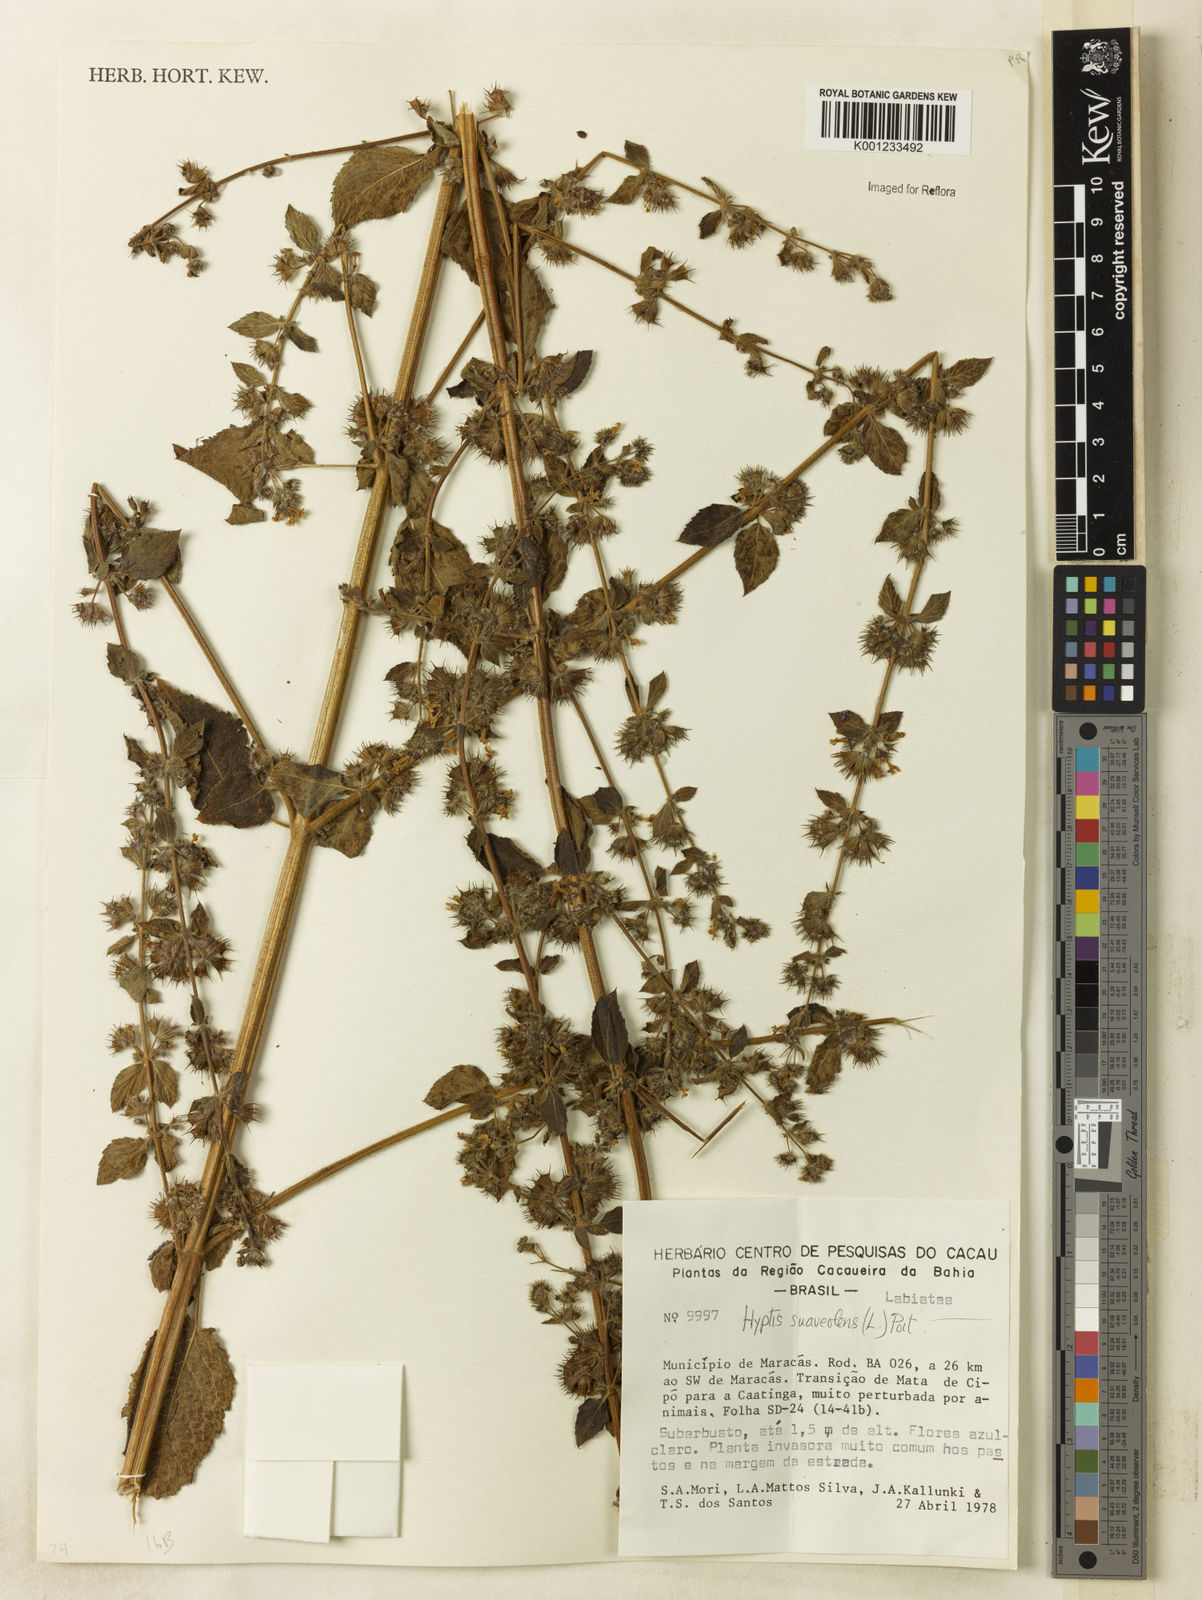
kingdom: Plantae
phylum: Tracheophyta
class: Magnoliopsida
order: Lamiales
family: Lamiaceae
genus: Mesosphaerum
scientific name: Mesosphaerum suaveolens
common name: Pignut
